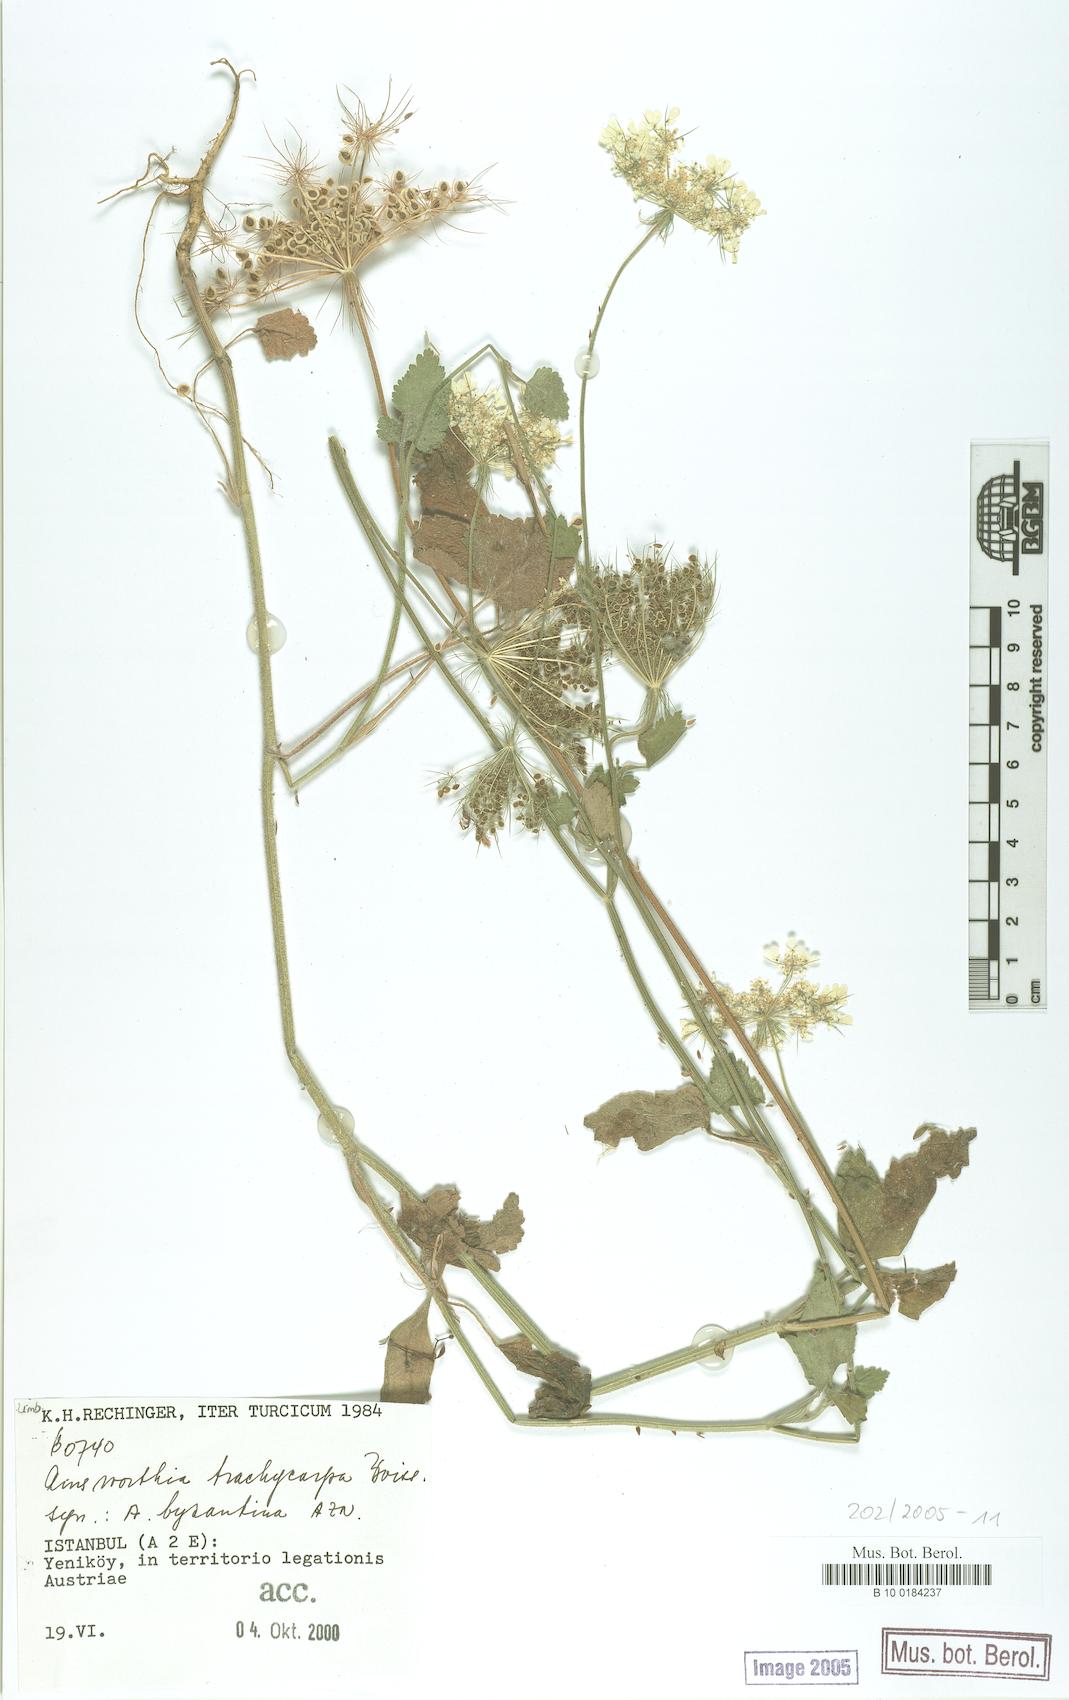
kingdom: Plantae
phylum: Tracheophyta
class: Magnoliopsida
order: Apiales
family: Apiaceae
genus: Ainsworthia
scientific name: Ainsworthia trachycarpa
